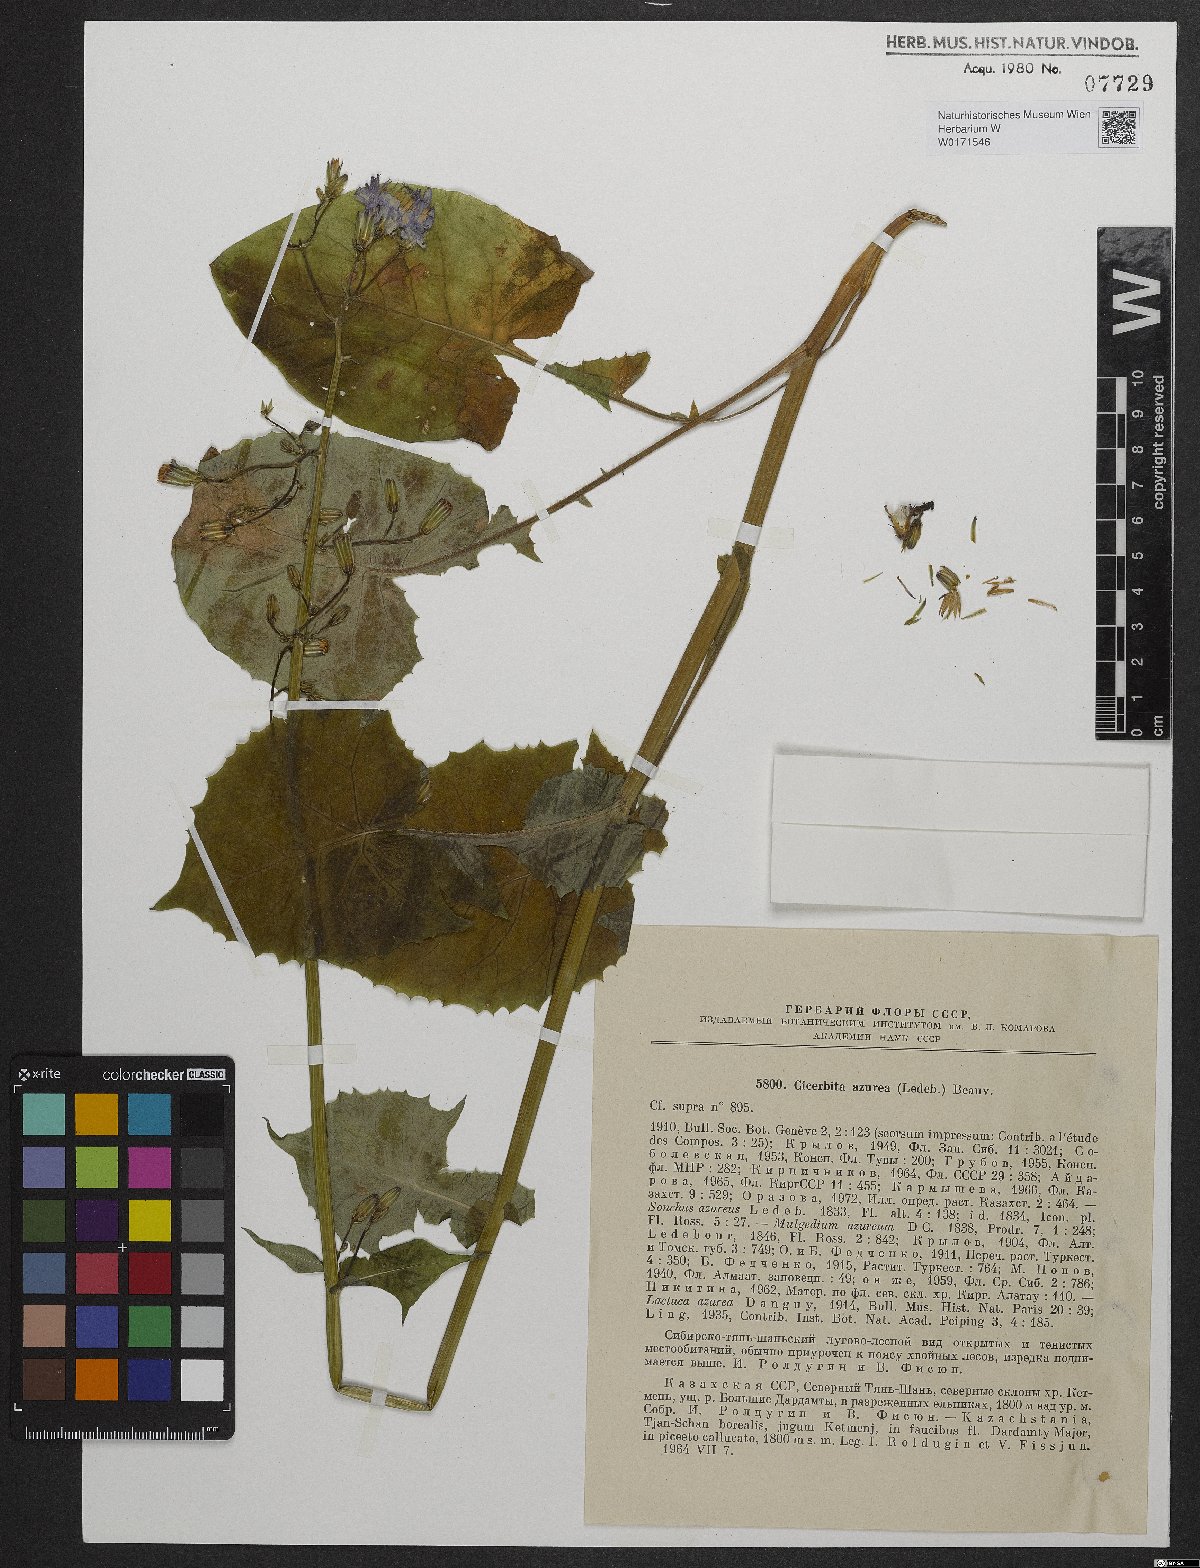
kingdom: Plantae
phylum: Tracheophyta
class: Magnoliopsida
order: Asterales
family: Asteraceae
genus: Cicerbita
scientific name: Cicerbita azurea
